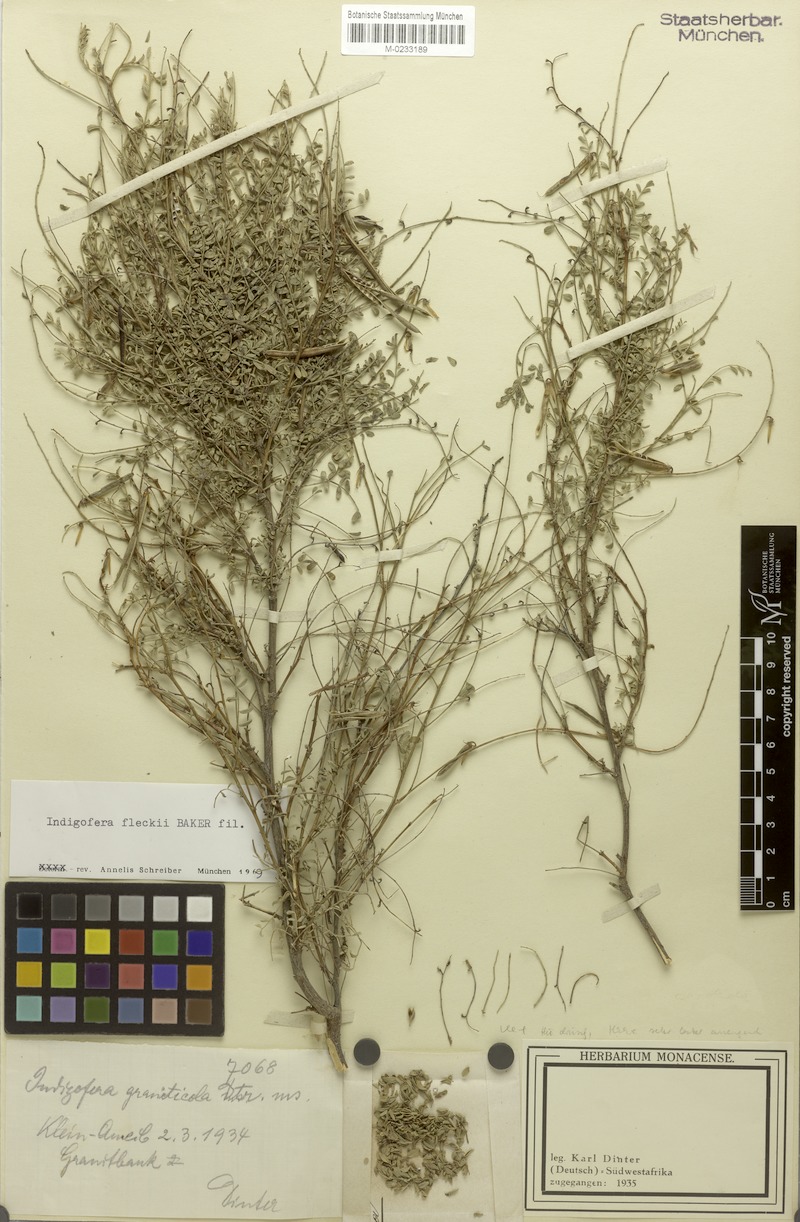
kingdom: Plantae
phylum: Tracheophyta
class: Magnoliopsida
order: Fabales
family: Fabaceae
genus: Indigofera
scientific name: Indigofera fleckii
